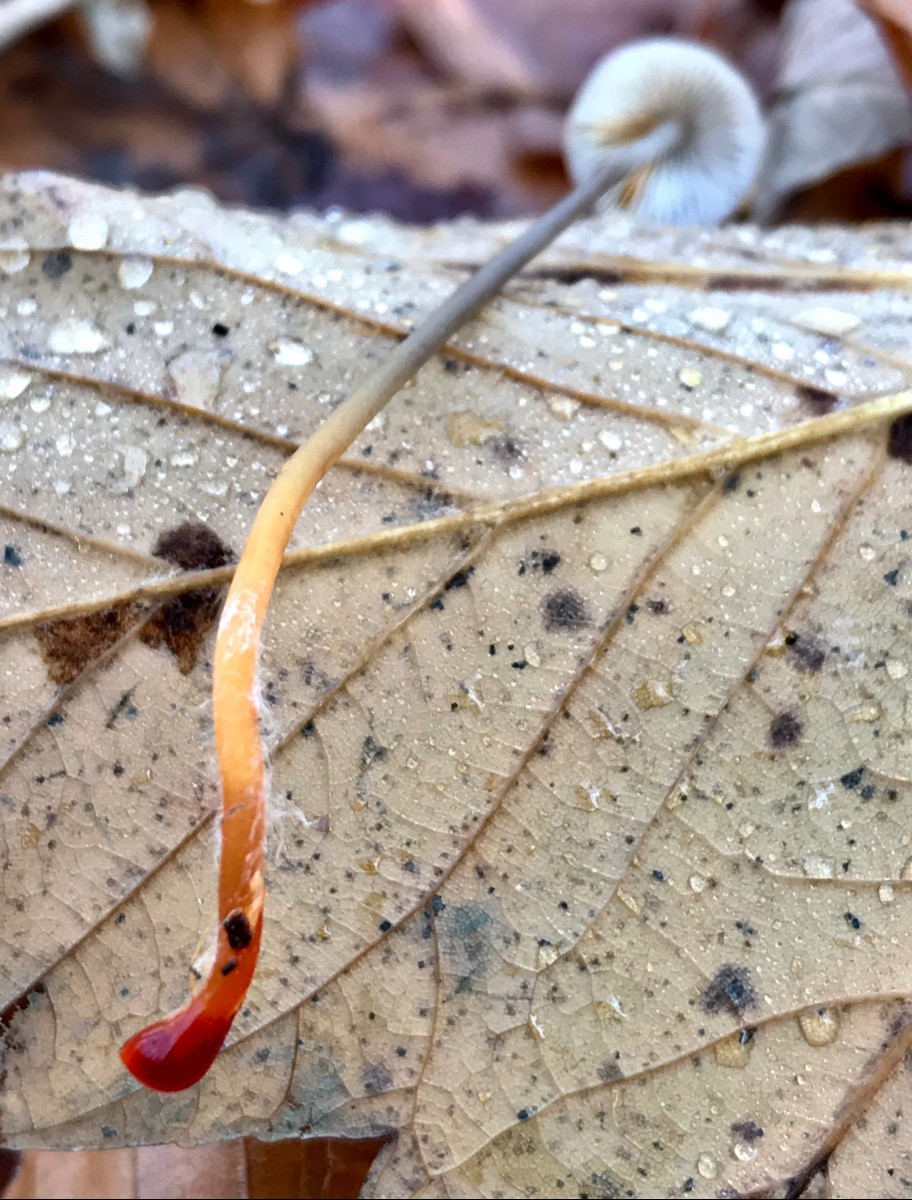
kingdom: Fungi
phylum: Basidiomycota
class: Agaricomycetes
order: Agaricales
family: Mycenaceae
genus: Mycena
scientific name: Mycena crocata
